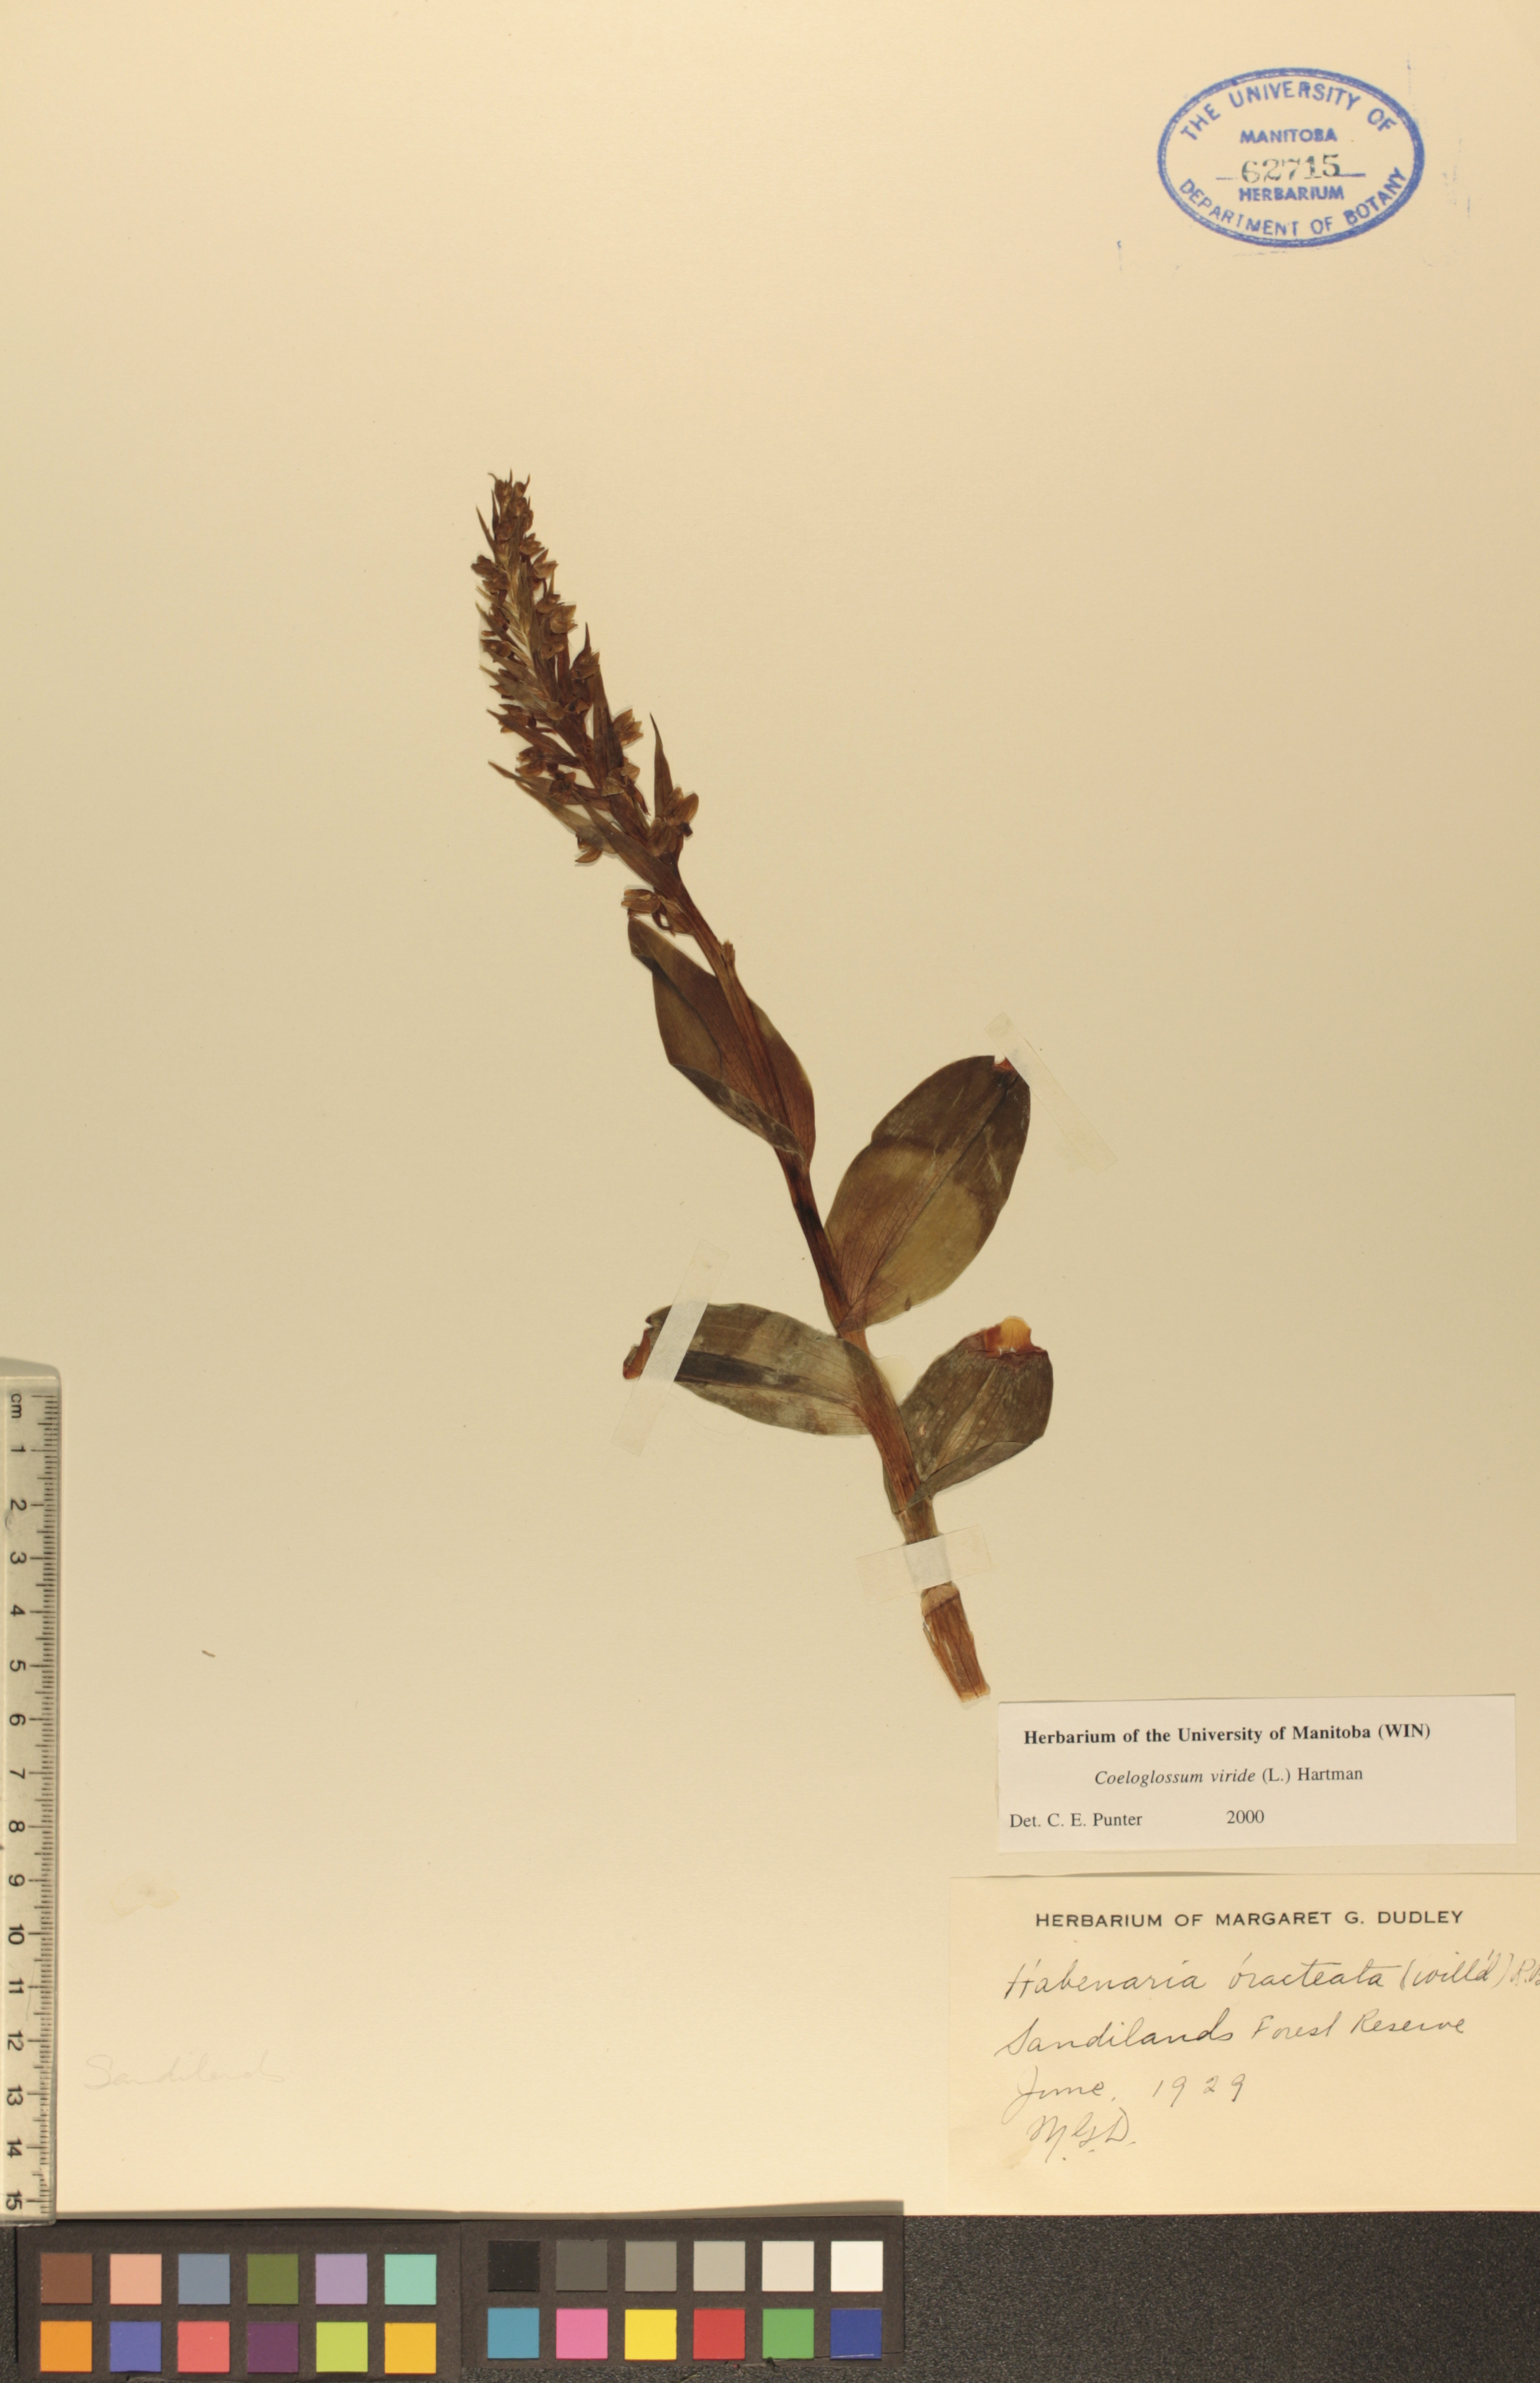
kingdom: Plantae
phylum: Tracheophyta
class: Liliopsida
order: Asparagales
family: Orchidaceae
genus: Dactylorhiza
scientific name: Dactylorhiza viridis
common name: Longbract frog orchid
